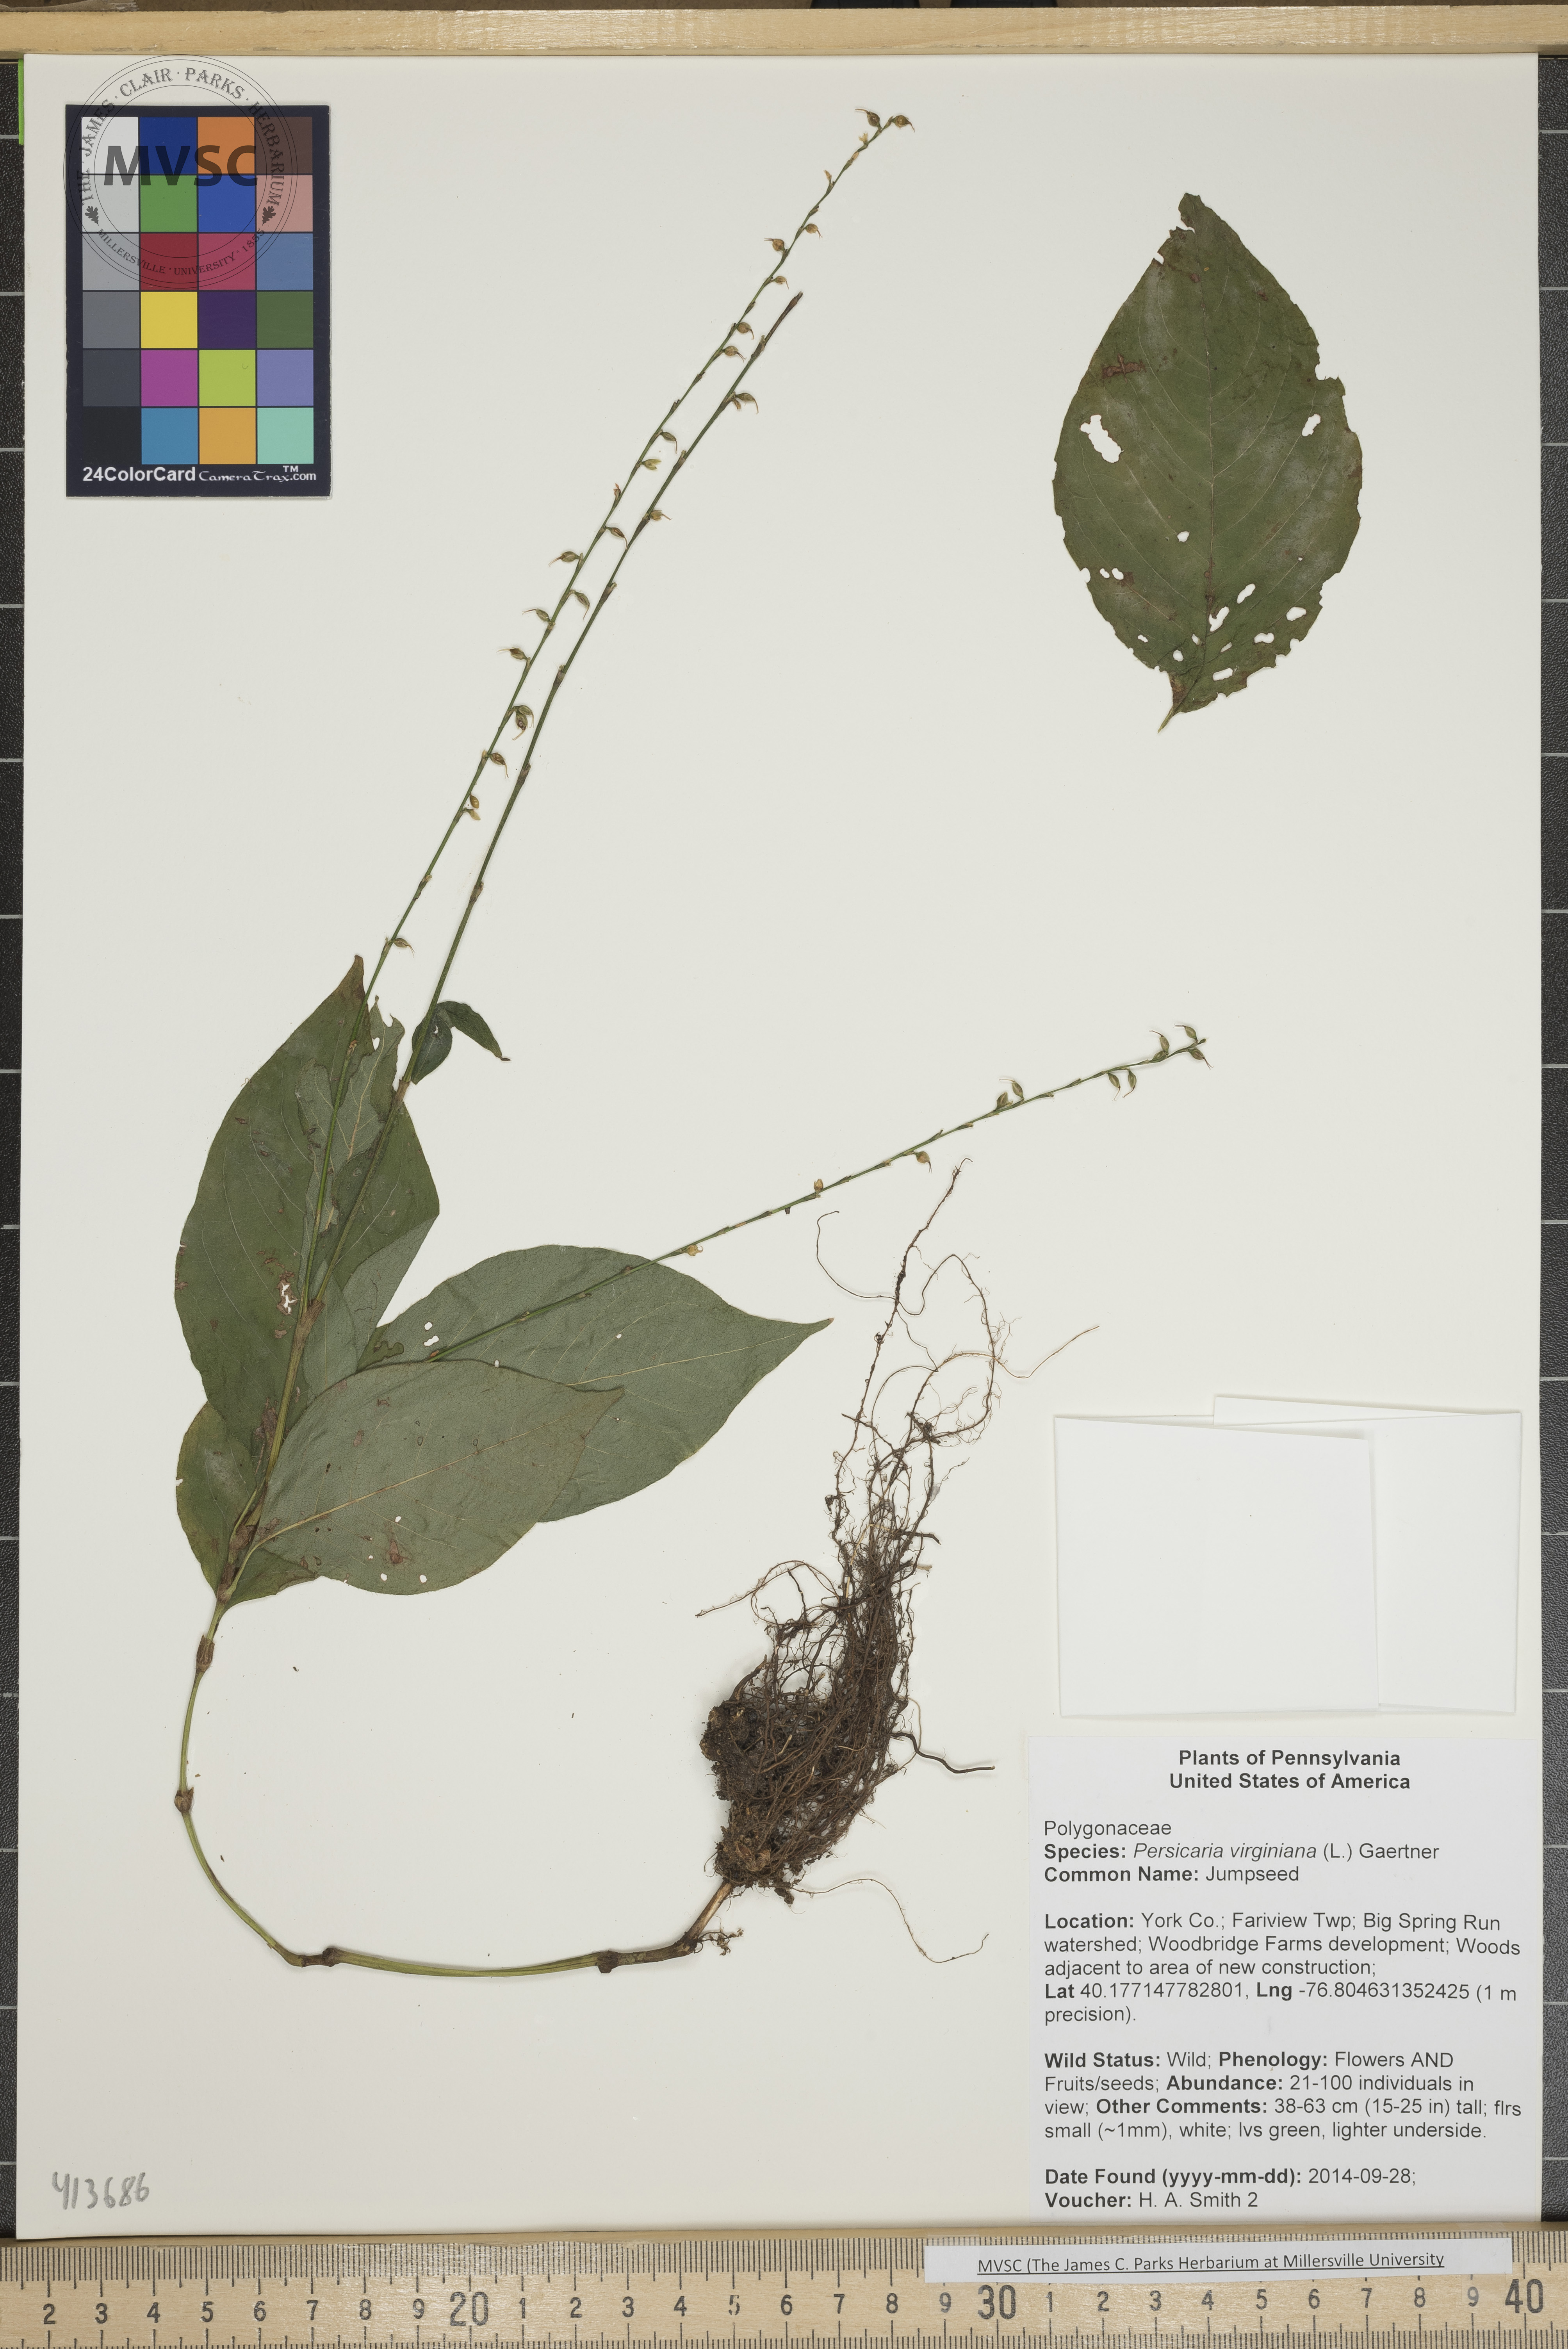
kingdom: Plantae
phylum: Tracheophyta
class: Magnoliopsida
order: Caryophyllales
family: Polygonaceae
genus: Persicaria
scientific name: Persicaria virginiana
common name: Jumpseed
